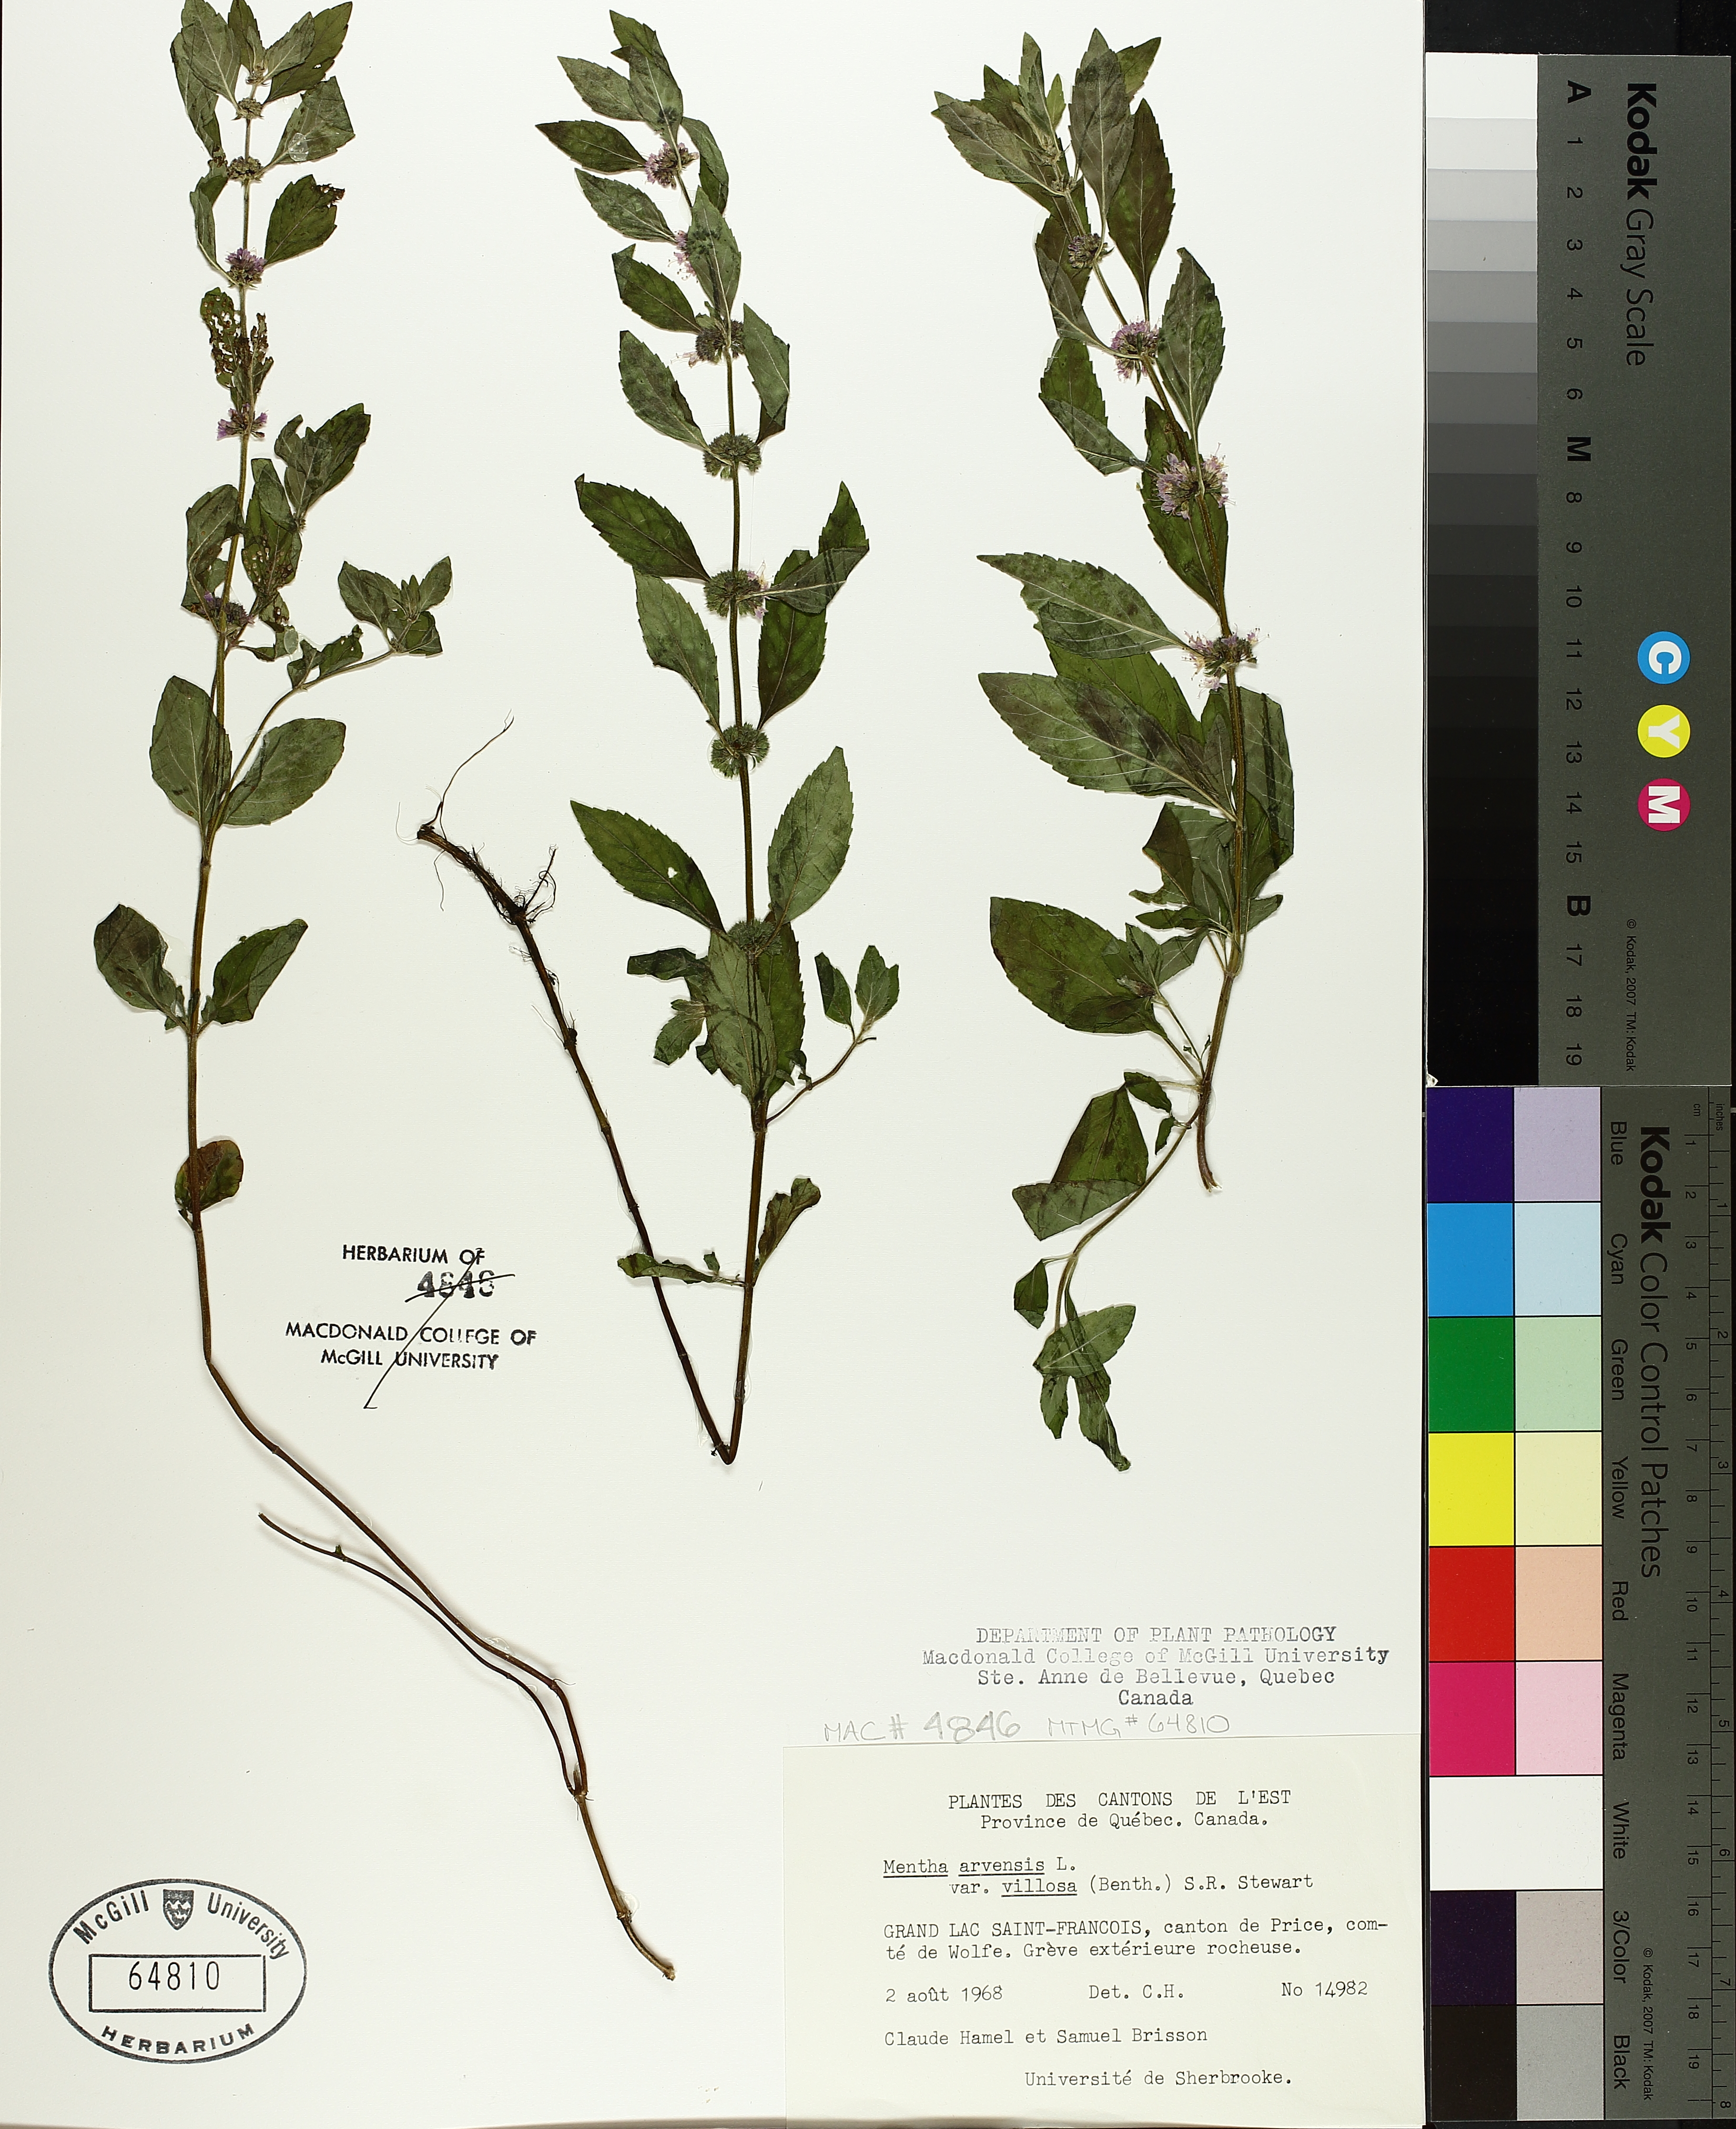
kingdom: Plantae
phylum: Tracheophyta
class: Magnoliopsida
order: Lamiales
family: Lamiaceae
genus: Mentha
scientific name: Mentha arvensis
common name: Corn mint
